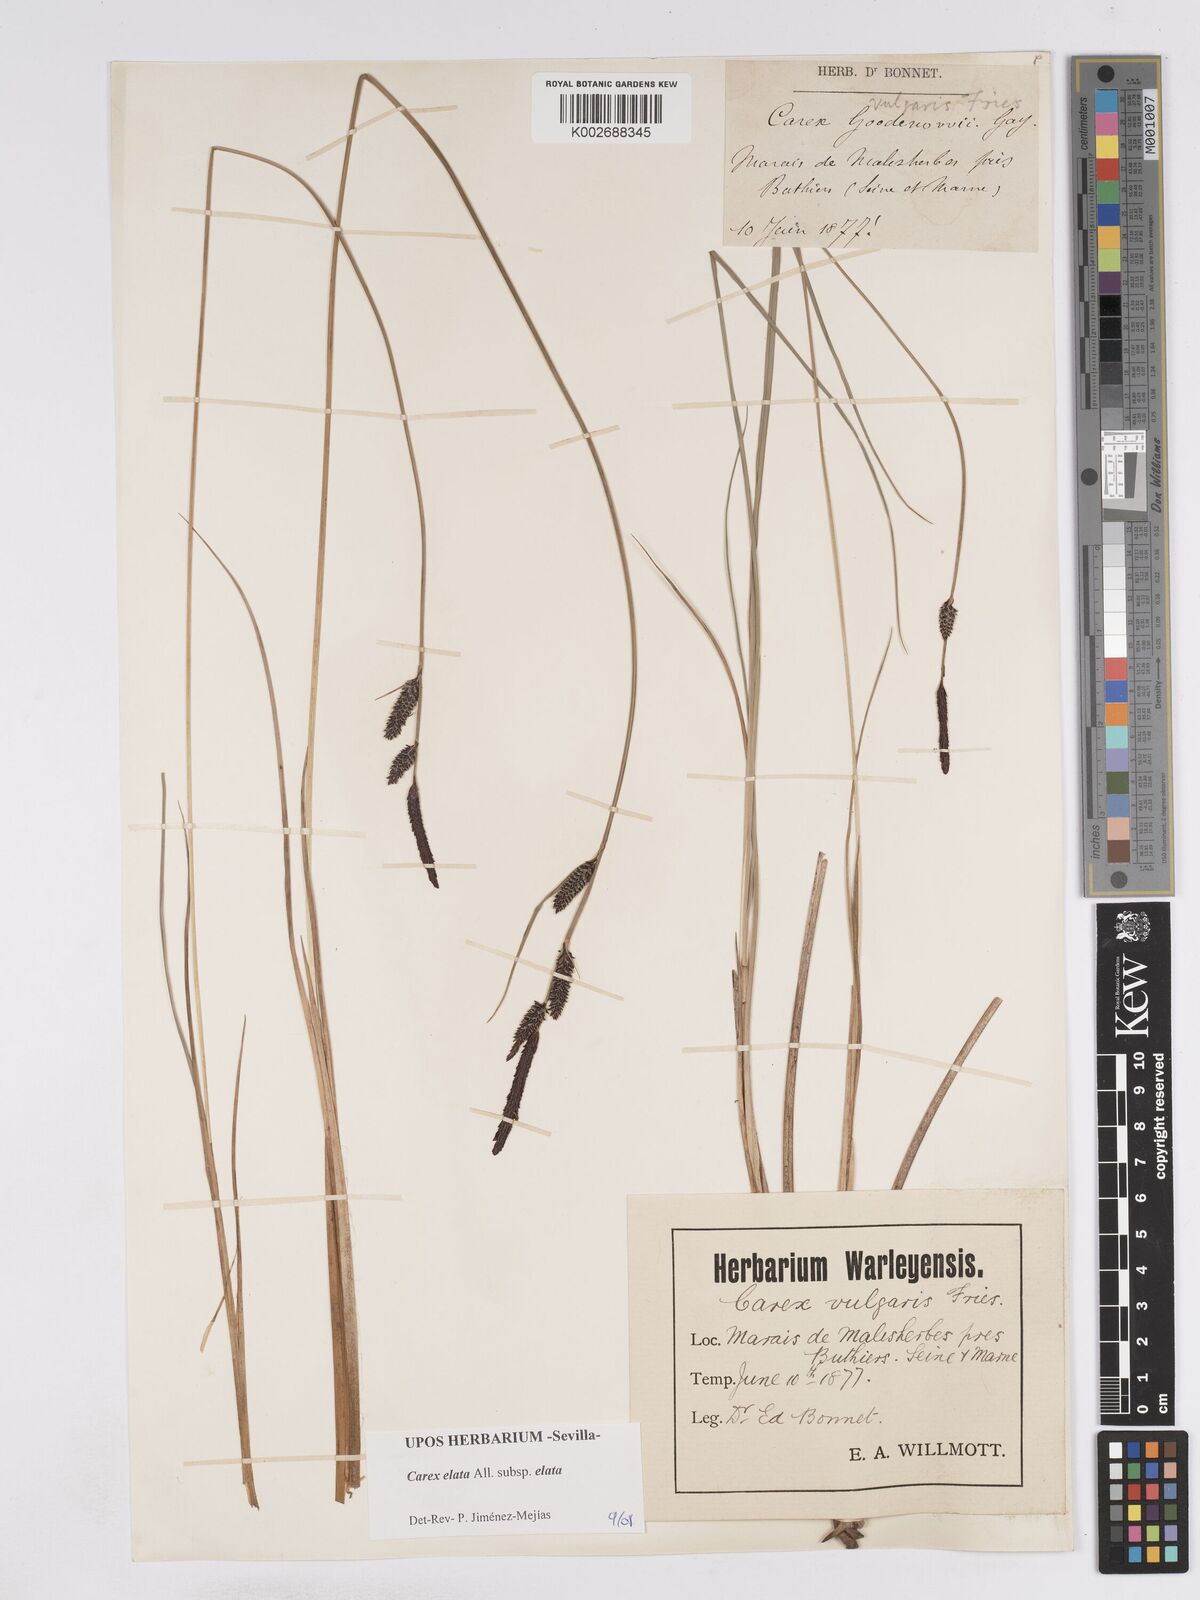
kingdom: Plantae
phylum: Tracheophyta
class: Liliopsida
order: Poales
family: Cyperaceae
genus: Carex
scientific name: Carex elata
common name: Tufted sedge
